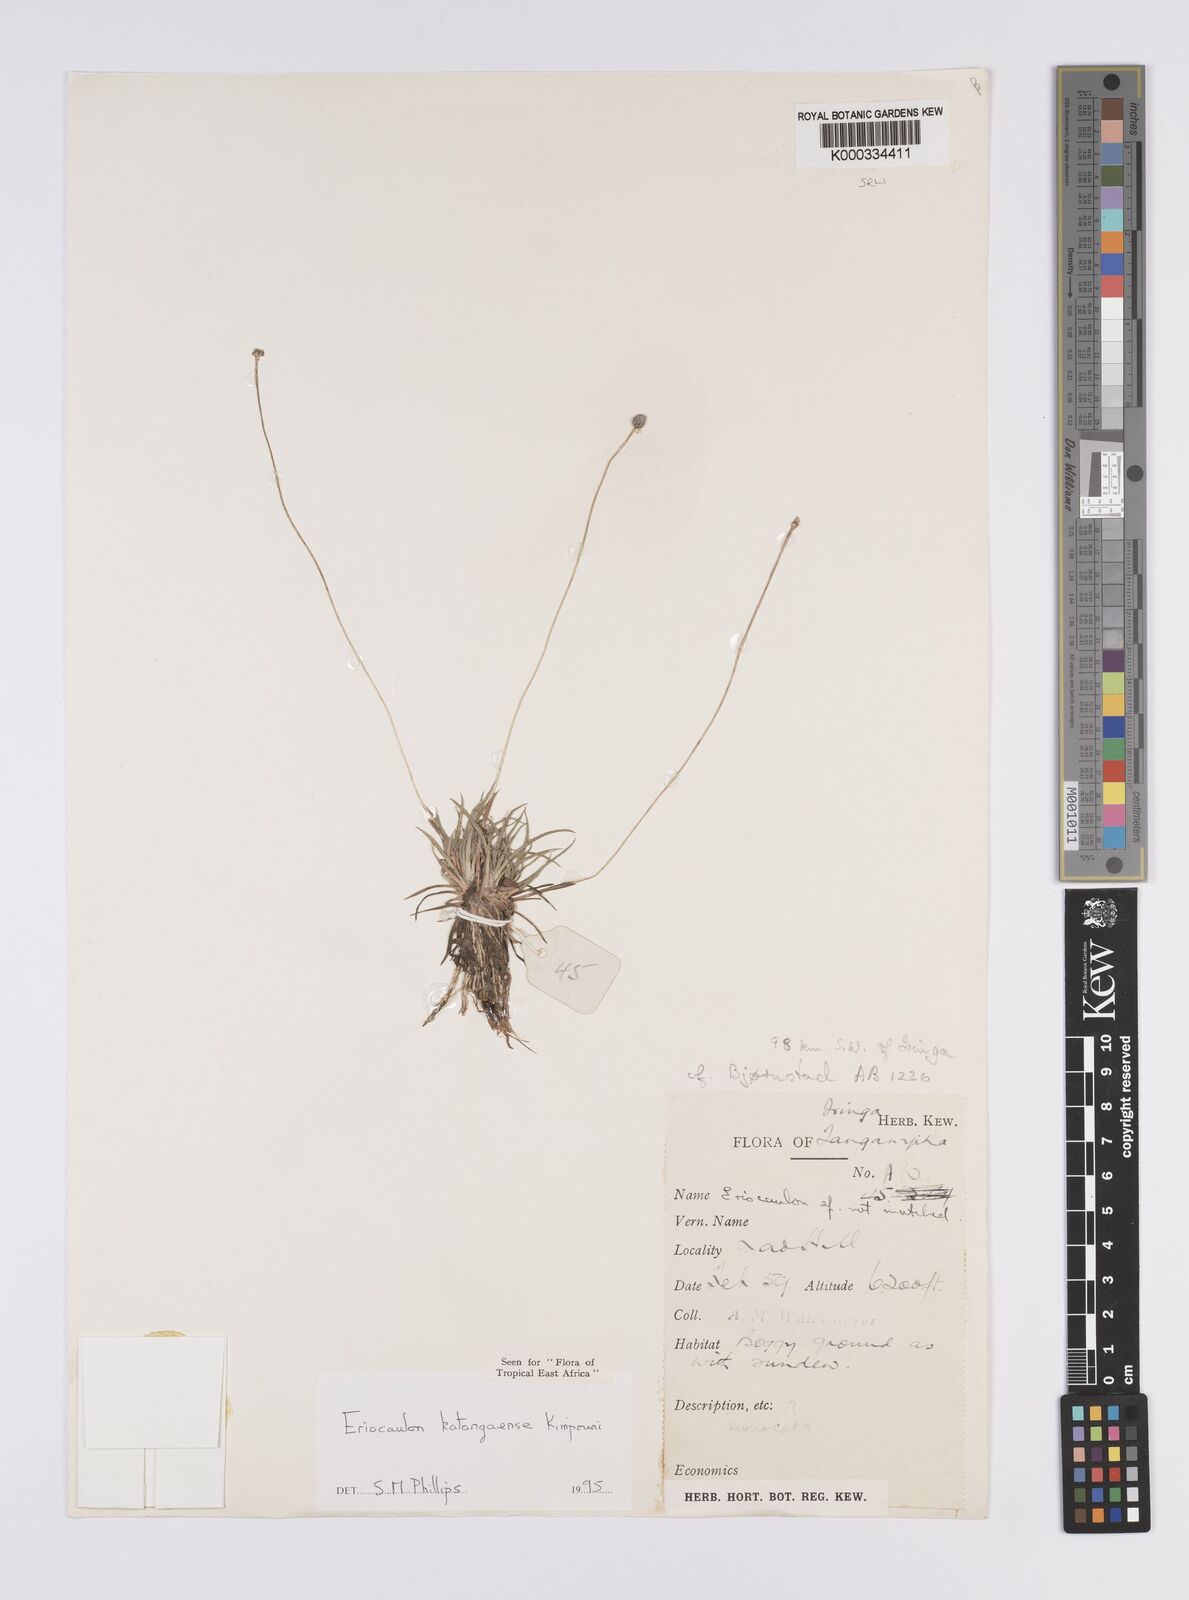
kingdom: Plantae
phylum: Tracheophyta
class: Liliopsida
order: Poales
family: Eriocaulaceae
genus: Eriocaulon
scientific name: Eriocaulon inyangense
